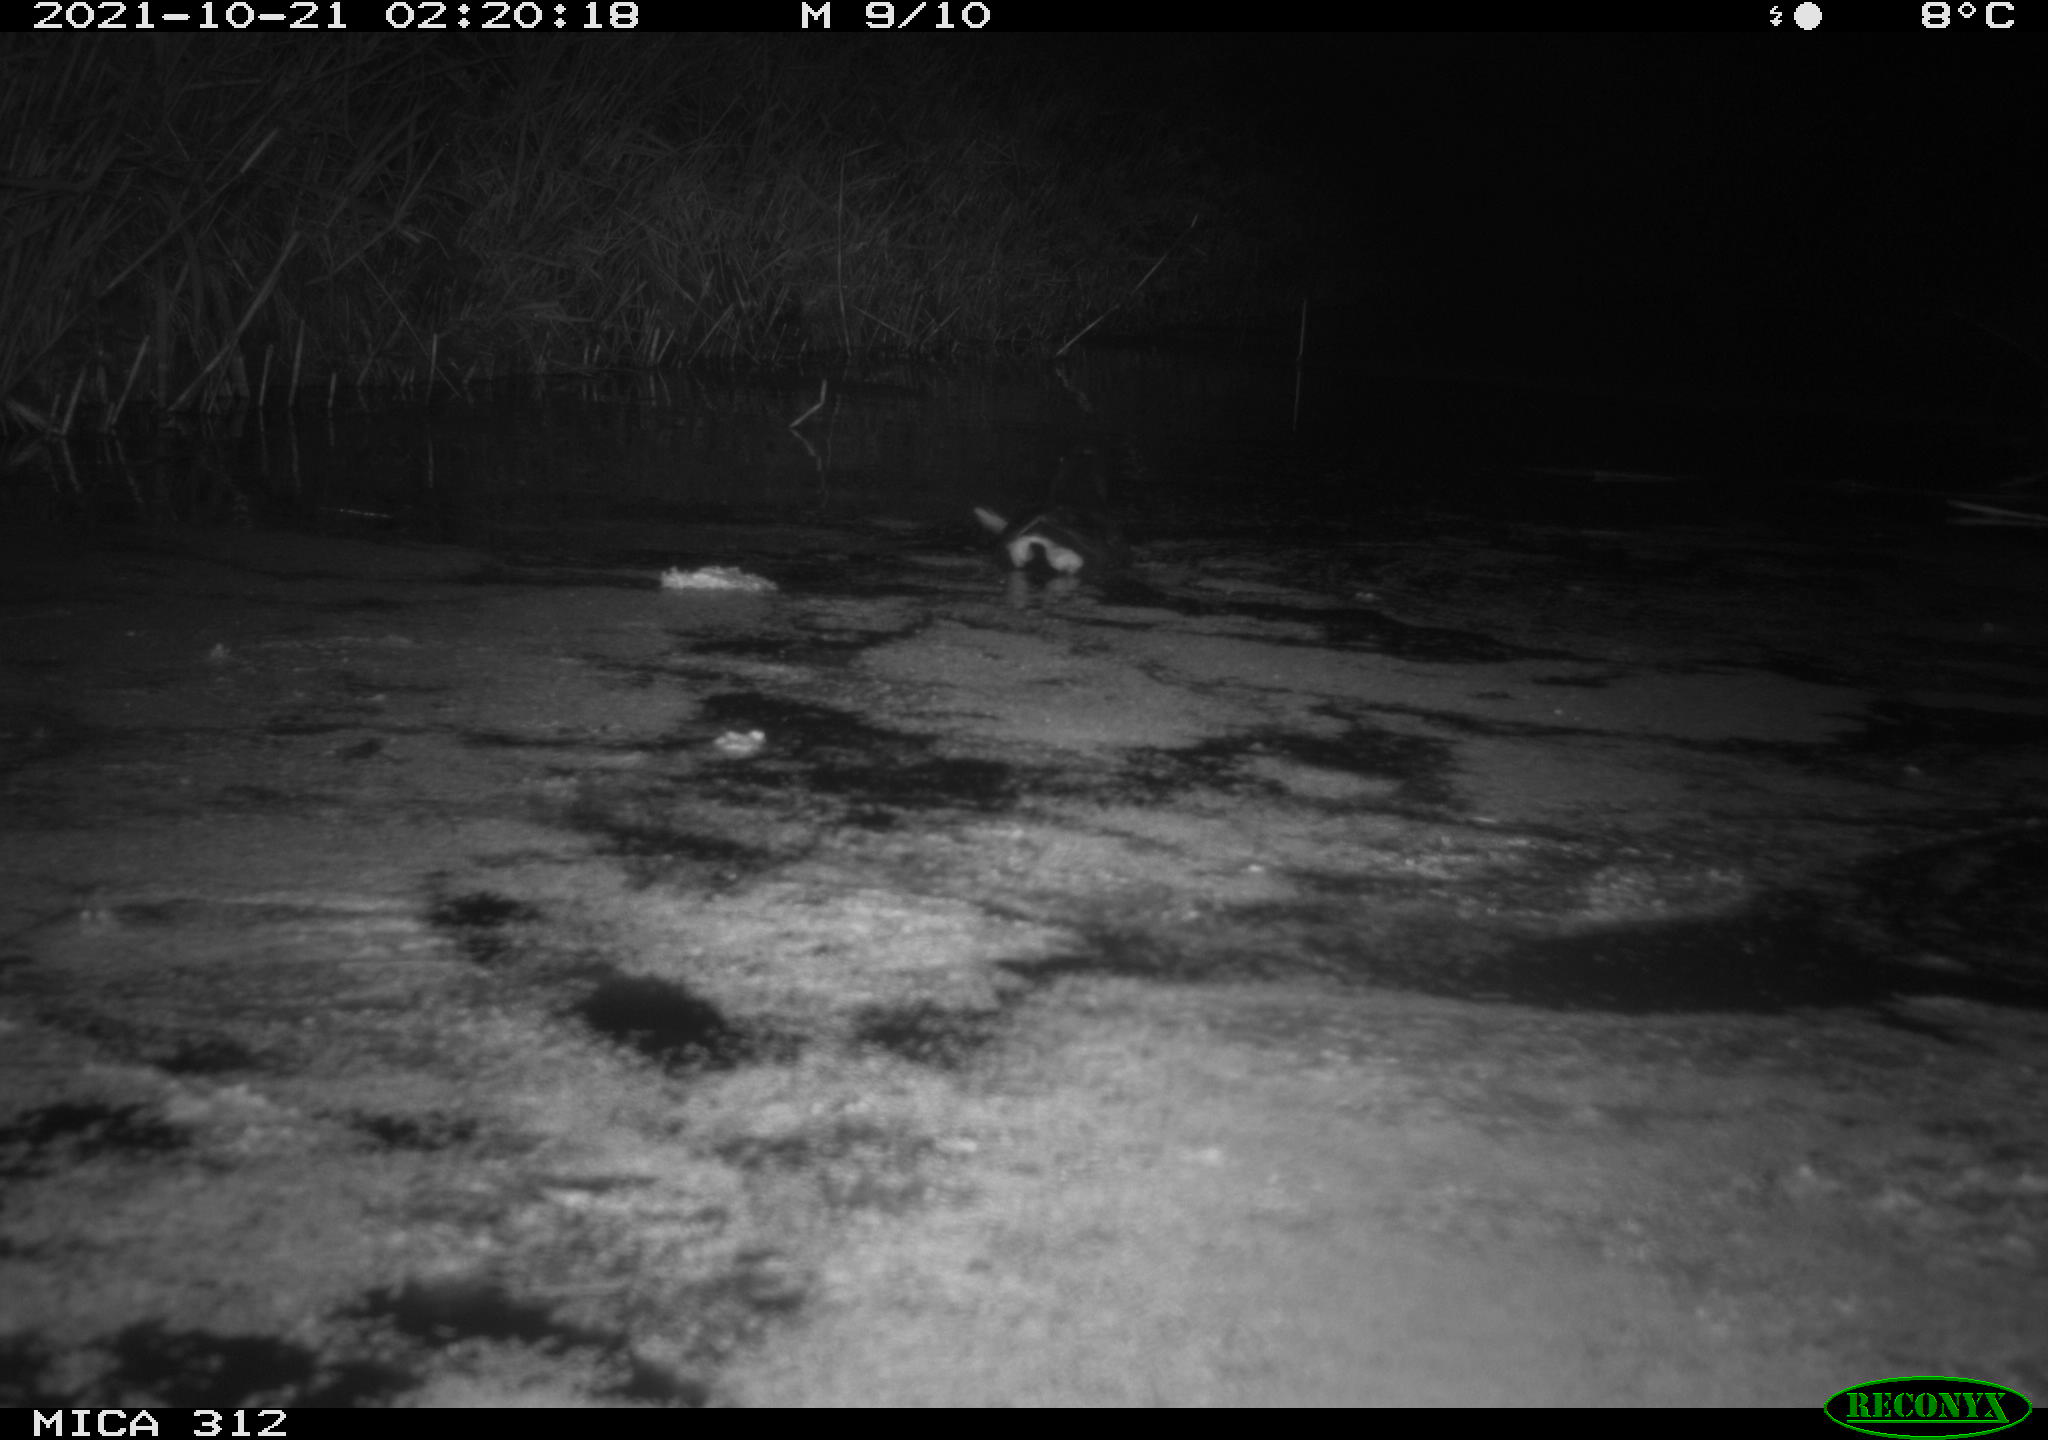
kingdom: Animalia
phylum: Chordata
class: Aves
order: Gruiformes
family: Rallidae
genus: Gallinula
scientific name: Gallinula chloropus
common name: Common moorhen
